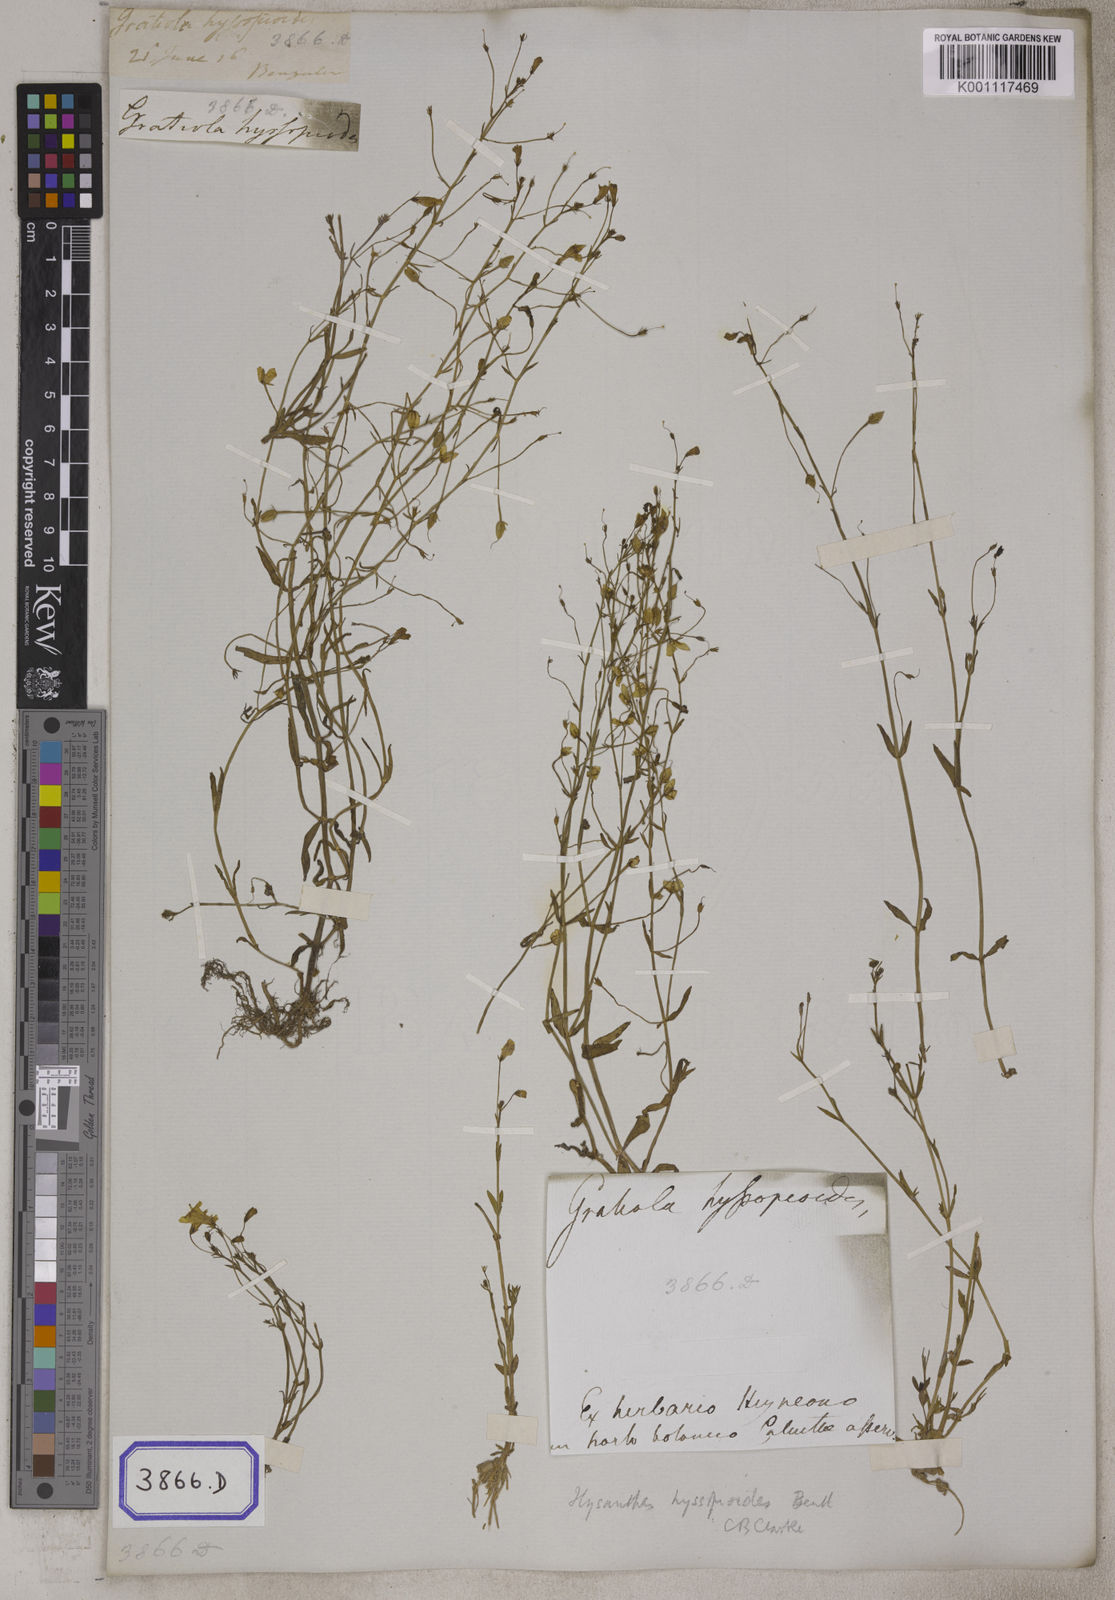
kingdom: Plantae
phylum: Tracheophyta
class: Magnoliopsida
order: Lamiales
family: Linderniaceae
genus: Bonnaya
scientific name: Bonnaya
